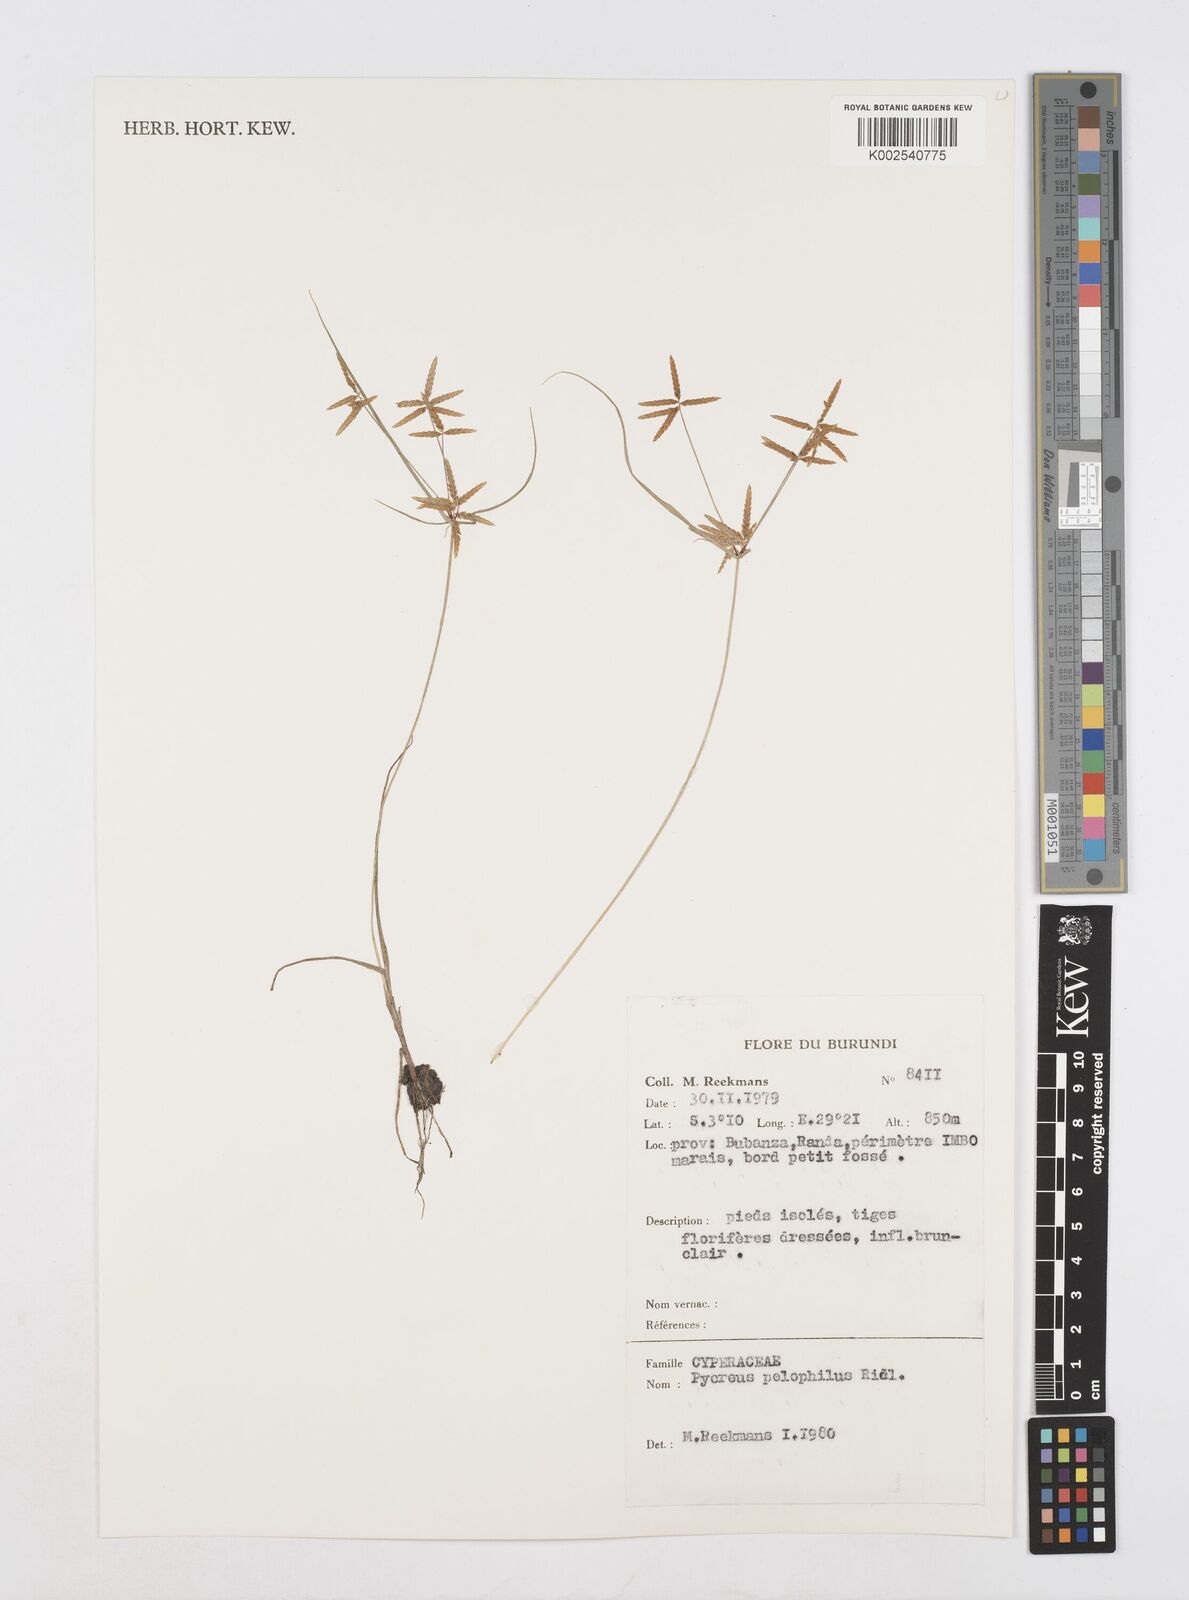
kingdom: Plantae
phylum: Tracheophyta
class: Liliopsida
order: Poales
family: Cyperaceae
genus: Cyperus
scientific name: Cyperus pelophilus
